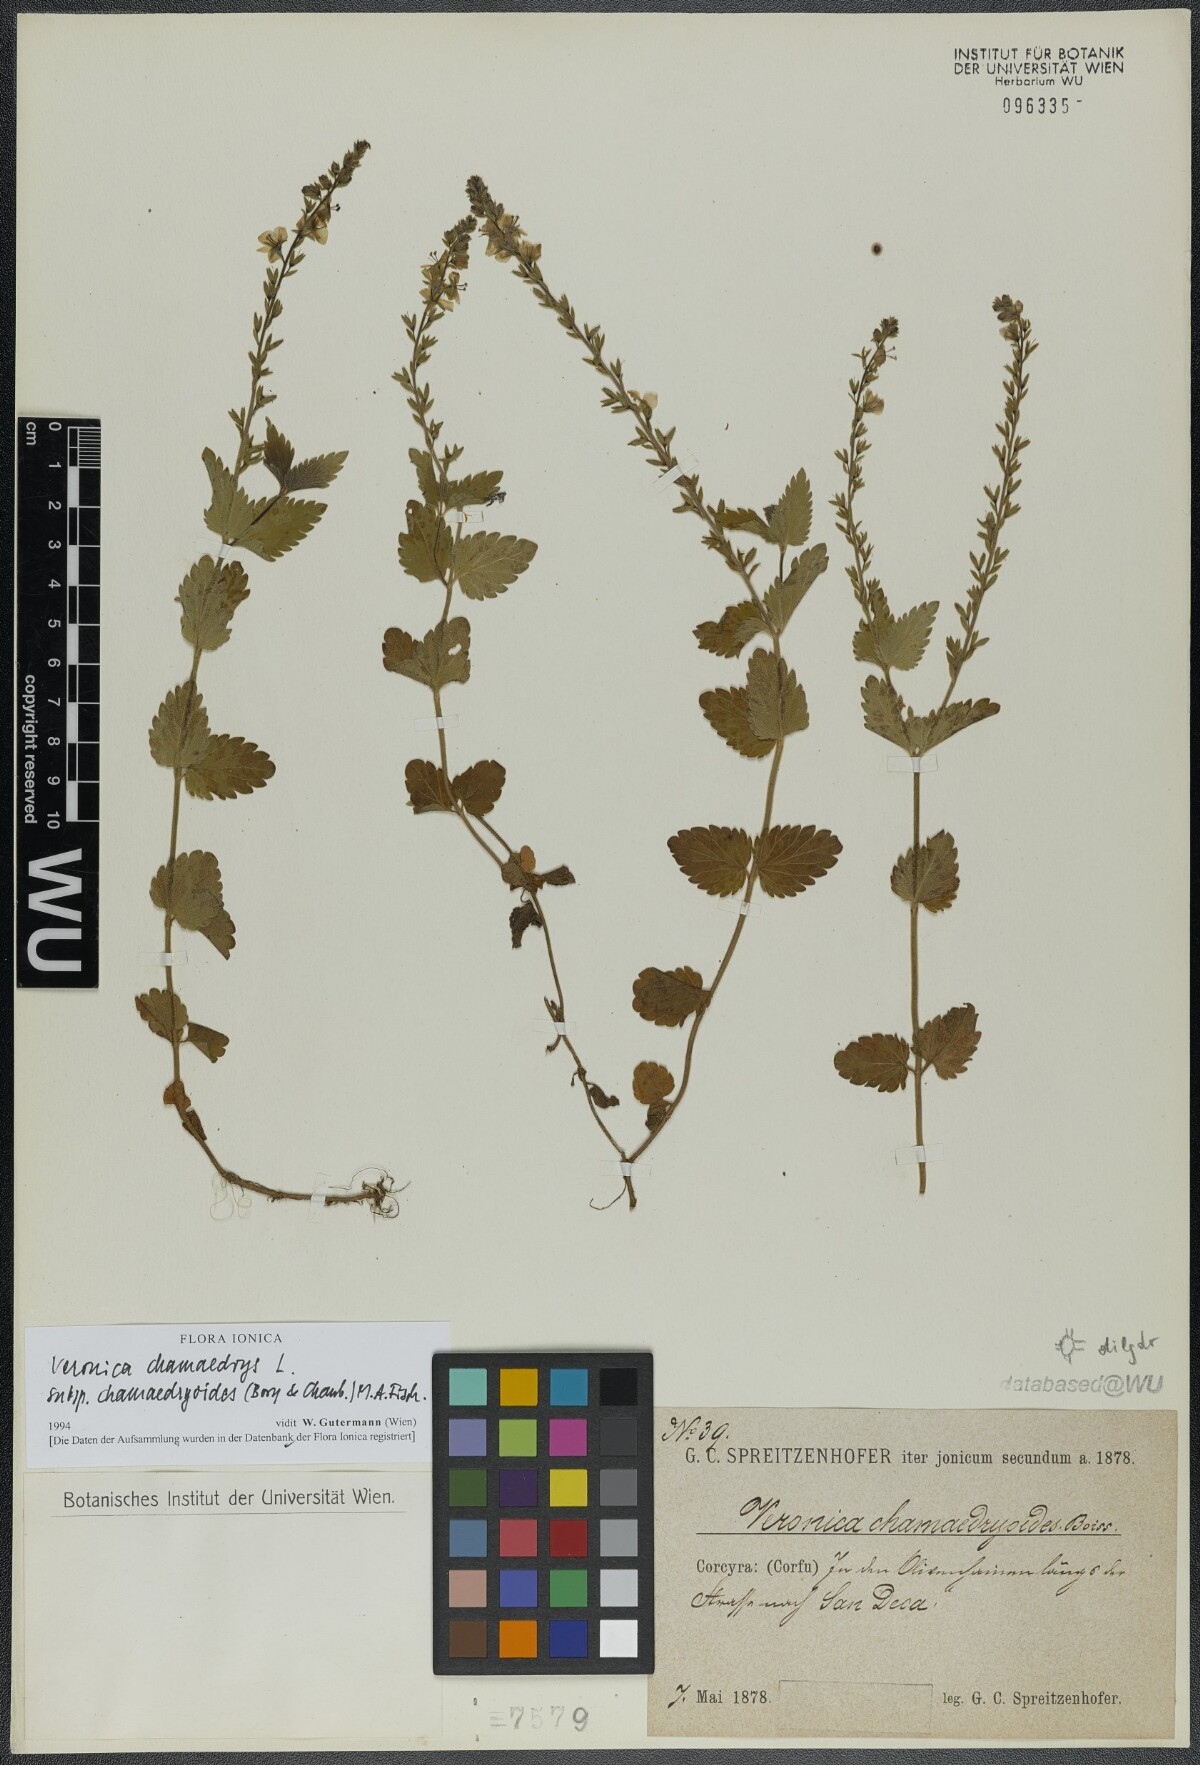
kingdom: Plantae
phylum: Tracheophyta
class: Magnoliopsida
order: Lamiales
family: Plantaginaceae
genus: Veronica
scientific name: Veronica chamaedrys
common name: Germander speedwell
